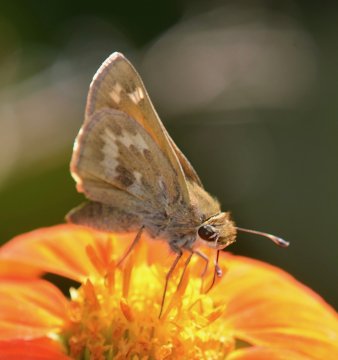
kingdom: Animalia
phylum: Arthropoda
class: Insecta
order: Lepidoptera
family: Hesperiidae
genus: Atalopedes
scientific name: Atalopedes campestris
